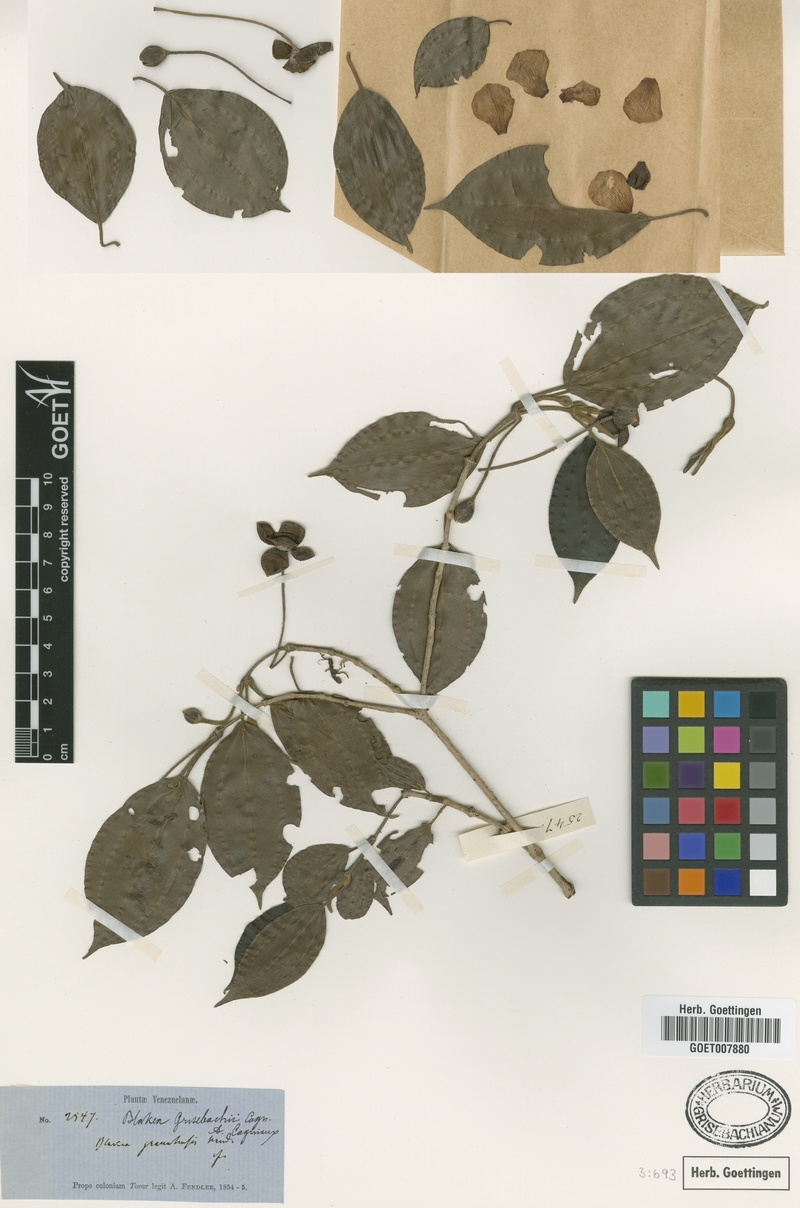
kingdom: Plantae
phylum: Tracheophyta
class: Magnoliopsida
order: Myrtales
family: Melastomataceae
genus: Blakea
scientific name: Blakea grisebachii
